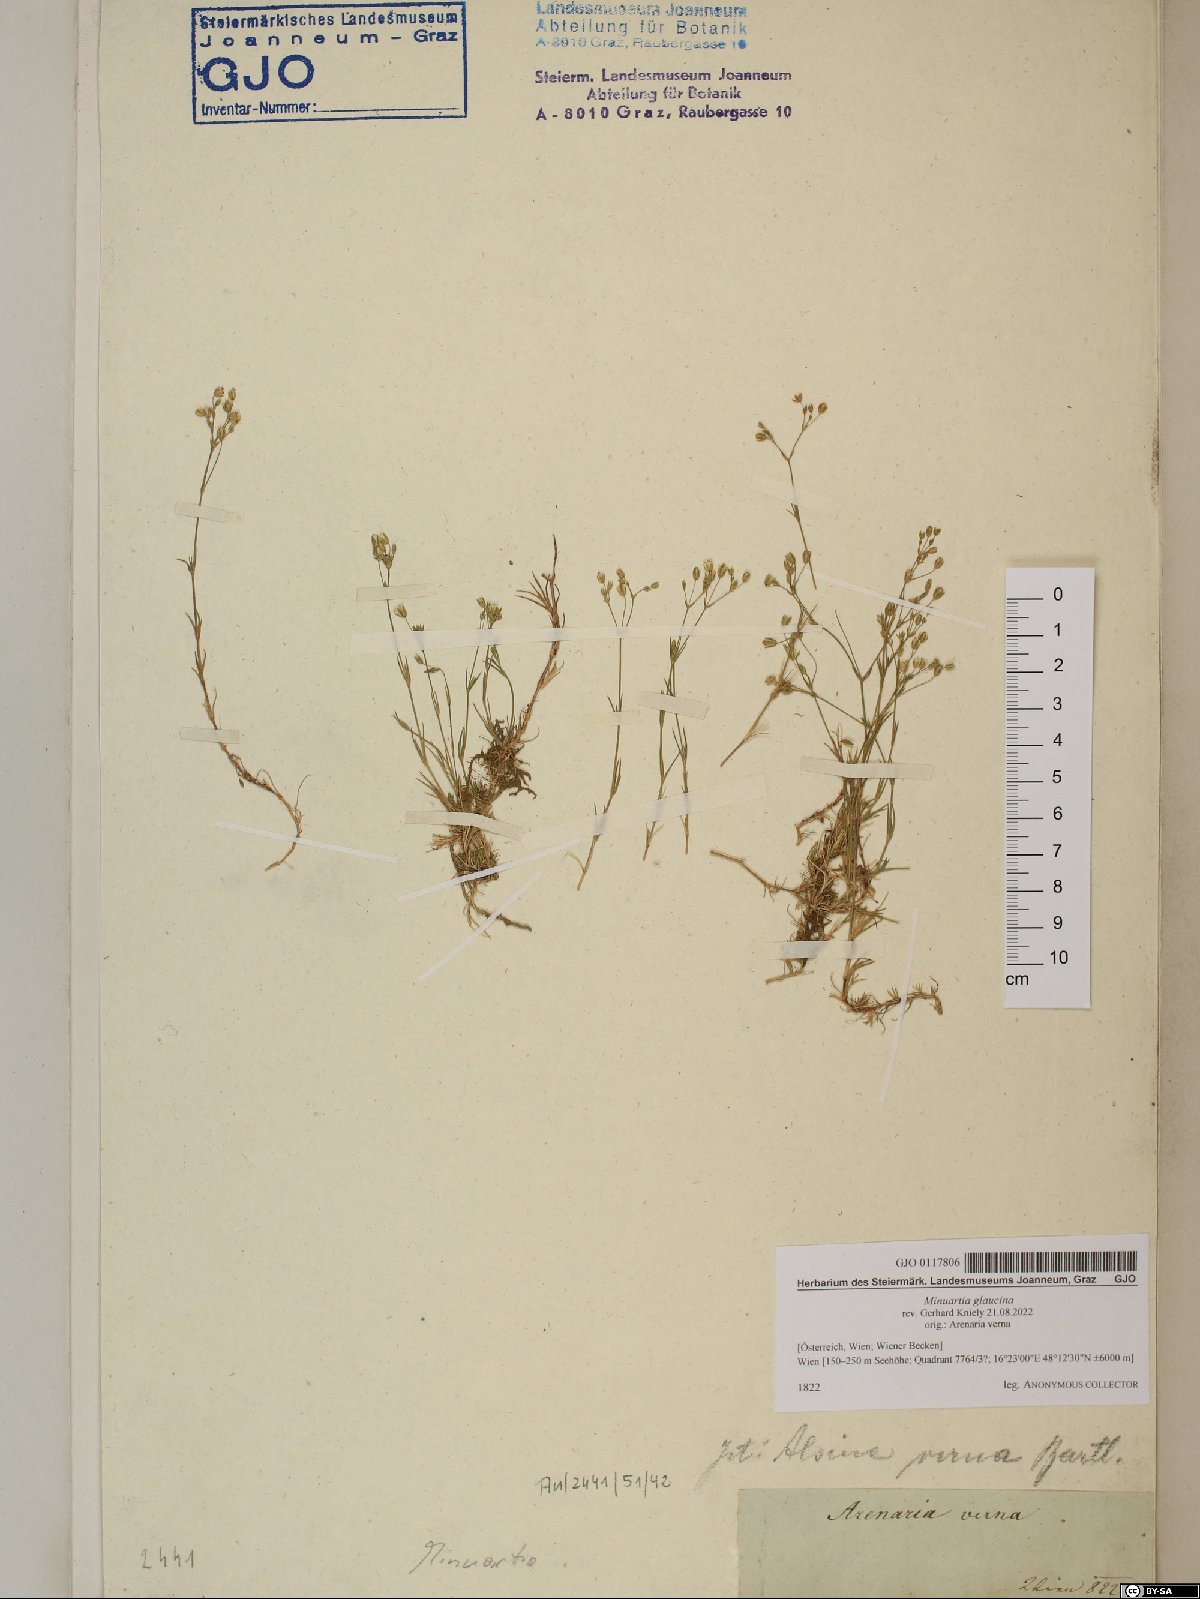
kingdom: Plantae
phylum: Tracheophyta
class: Magnoliopsida
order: Caryophyllales
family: Caryophyllaceae
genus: Sabulina
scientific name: Sabulina glaucina
